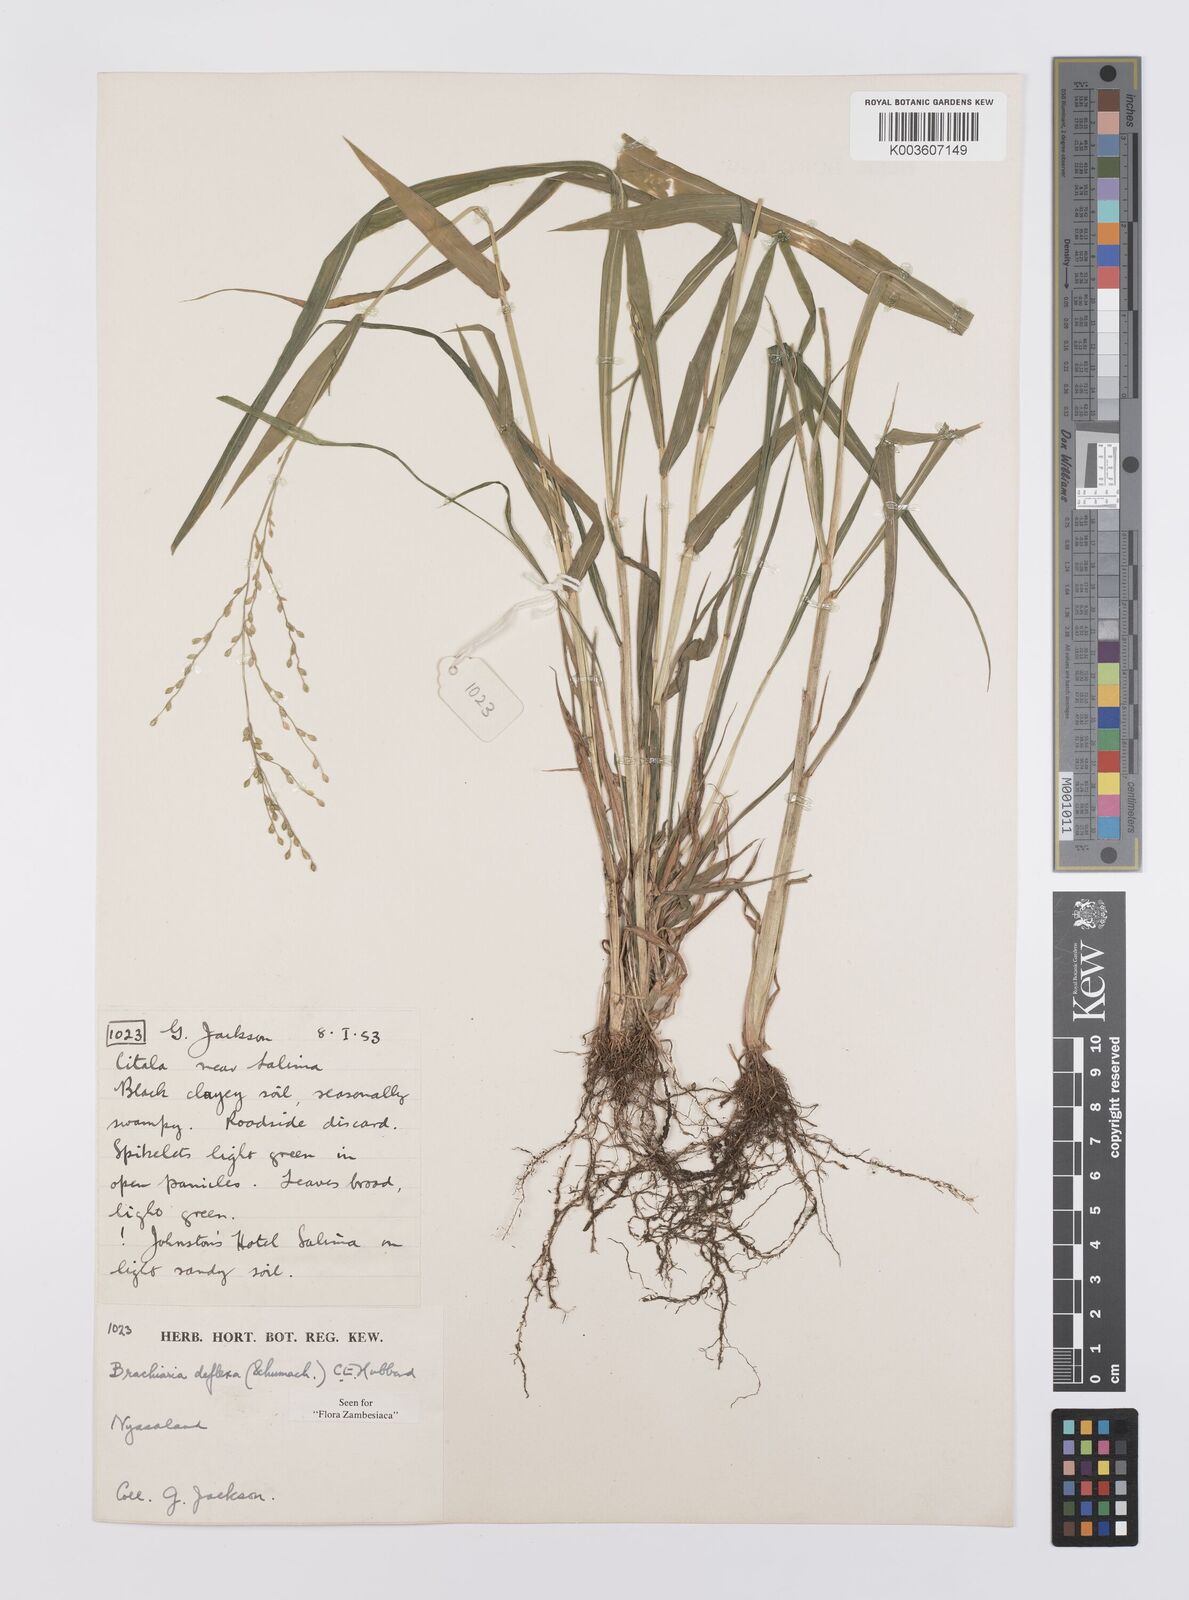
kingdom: Plantae
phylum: Tracheophyta
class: Liliopsida
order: Poales
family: Poaceae
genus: Urochloa
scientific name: Urochloa deflexa
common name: Guinea millet
